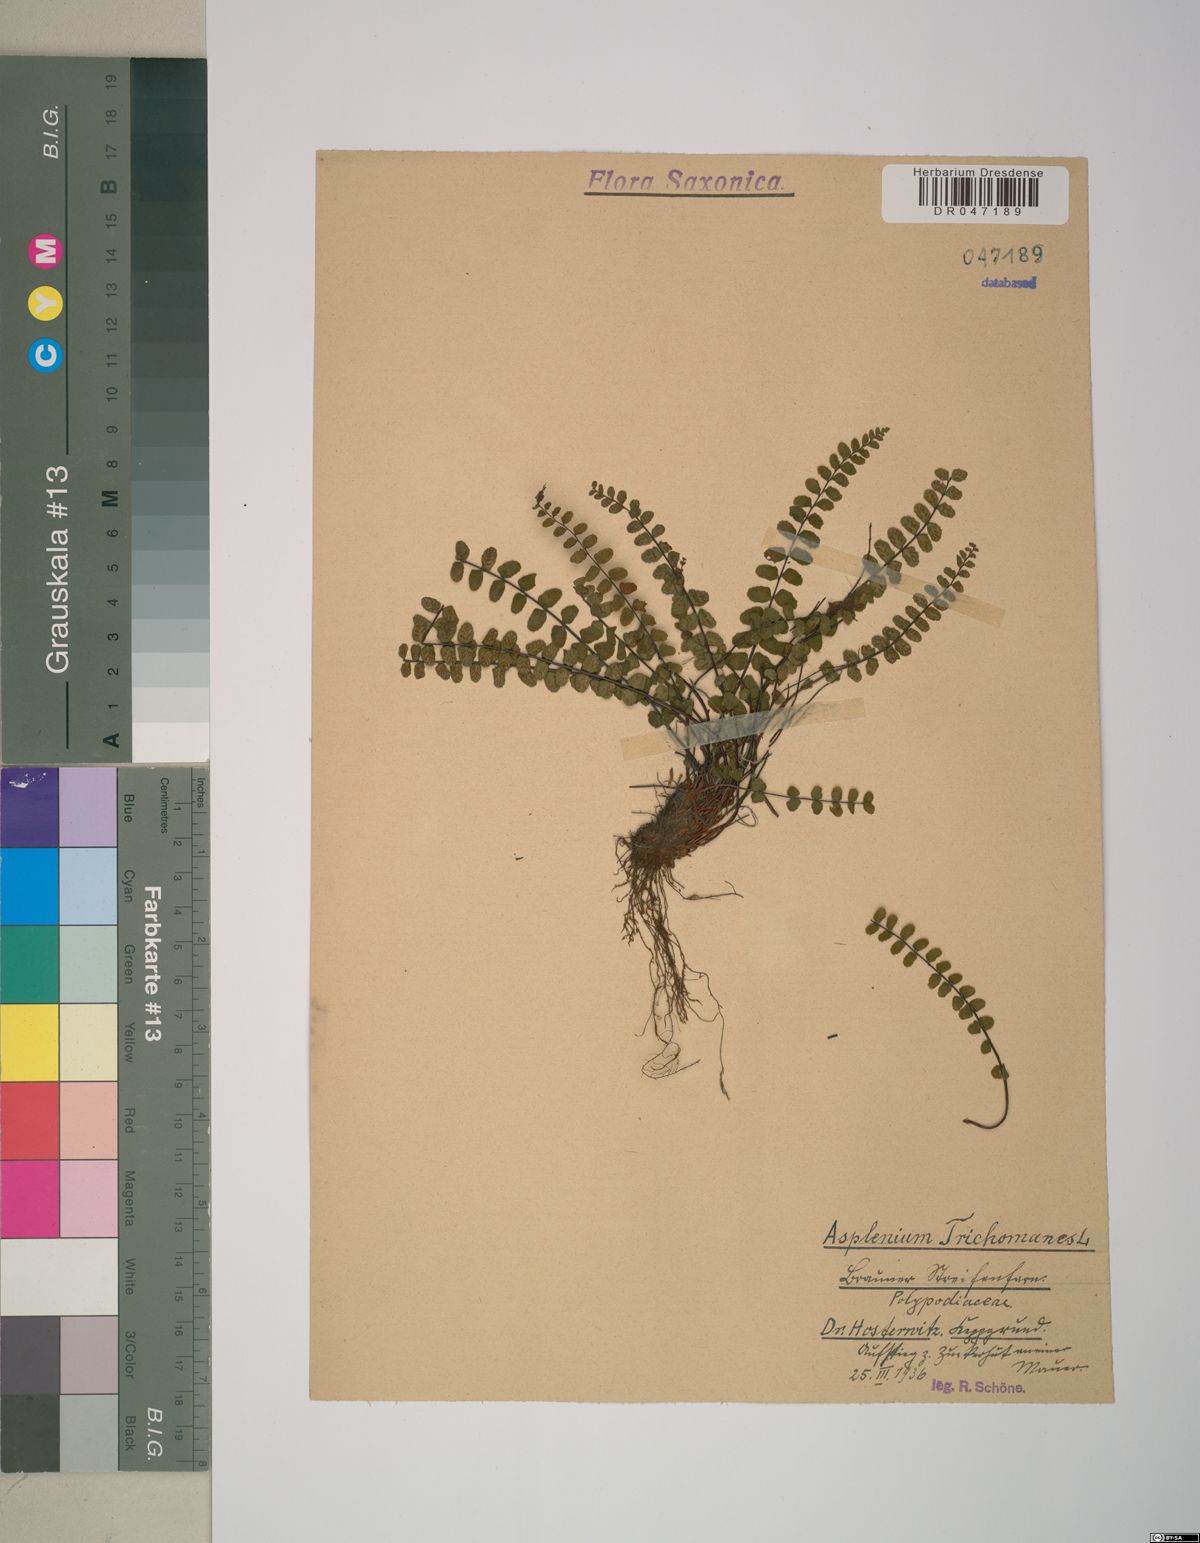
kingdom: Plantae
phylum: Tracheophyta
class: Polypodiopsida
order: Polypodiales
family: Aspleniaceae
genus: Asplenium
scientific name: Asplenium trichomanes
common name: Maidenhair spleenwort
